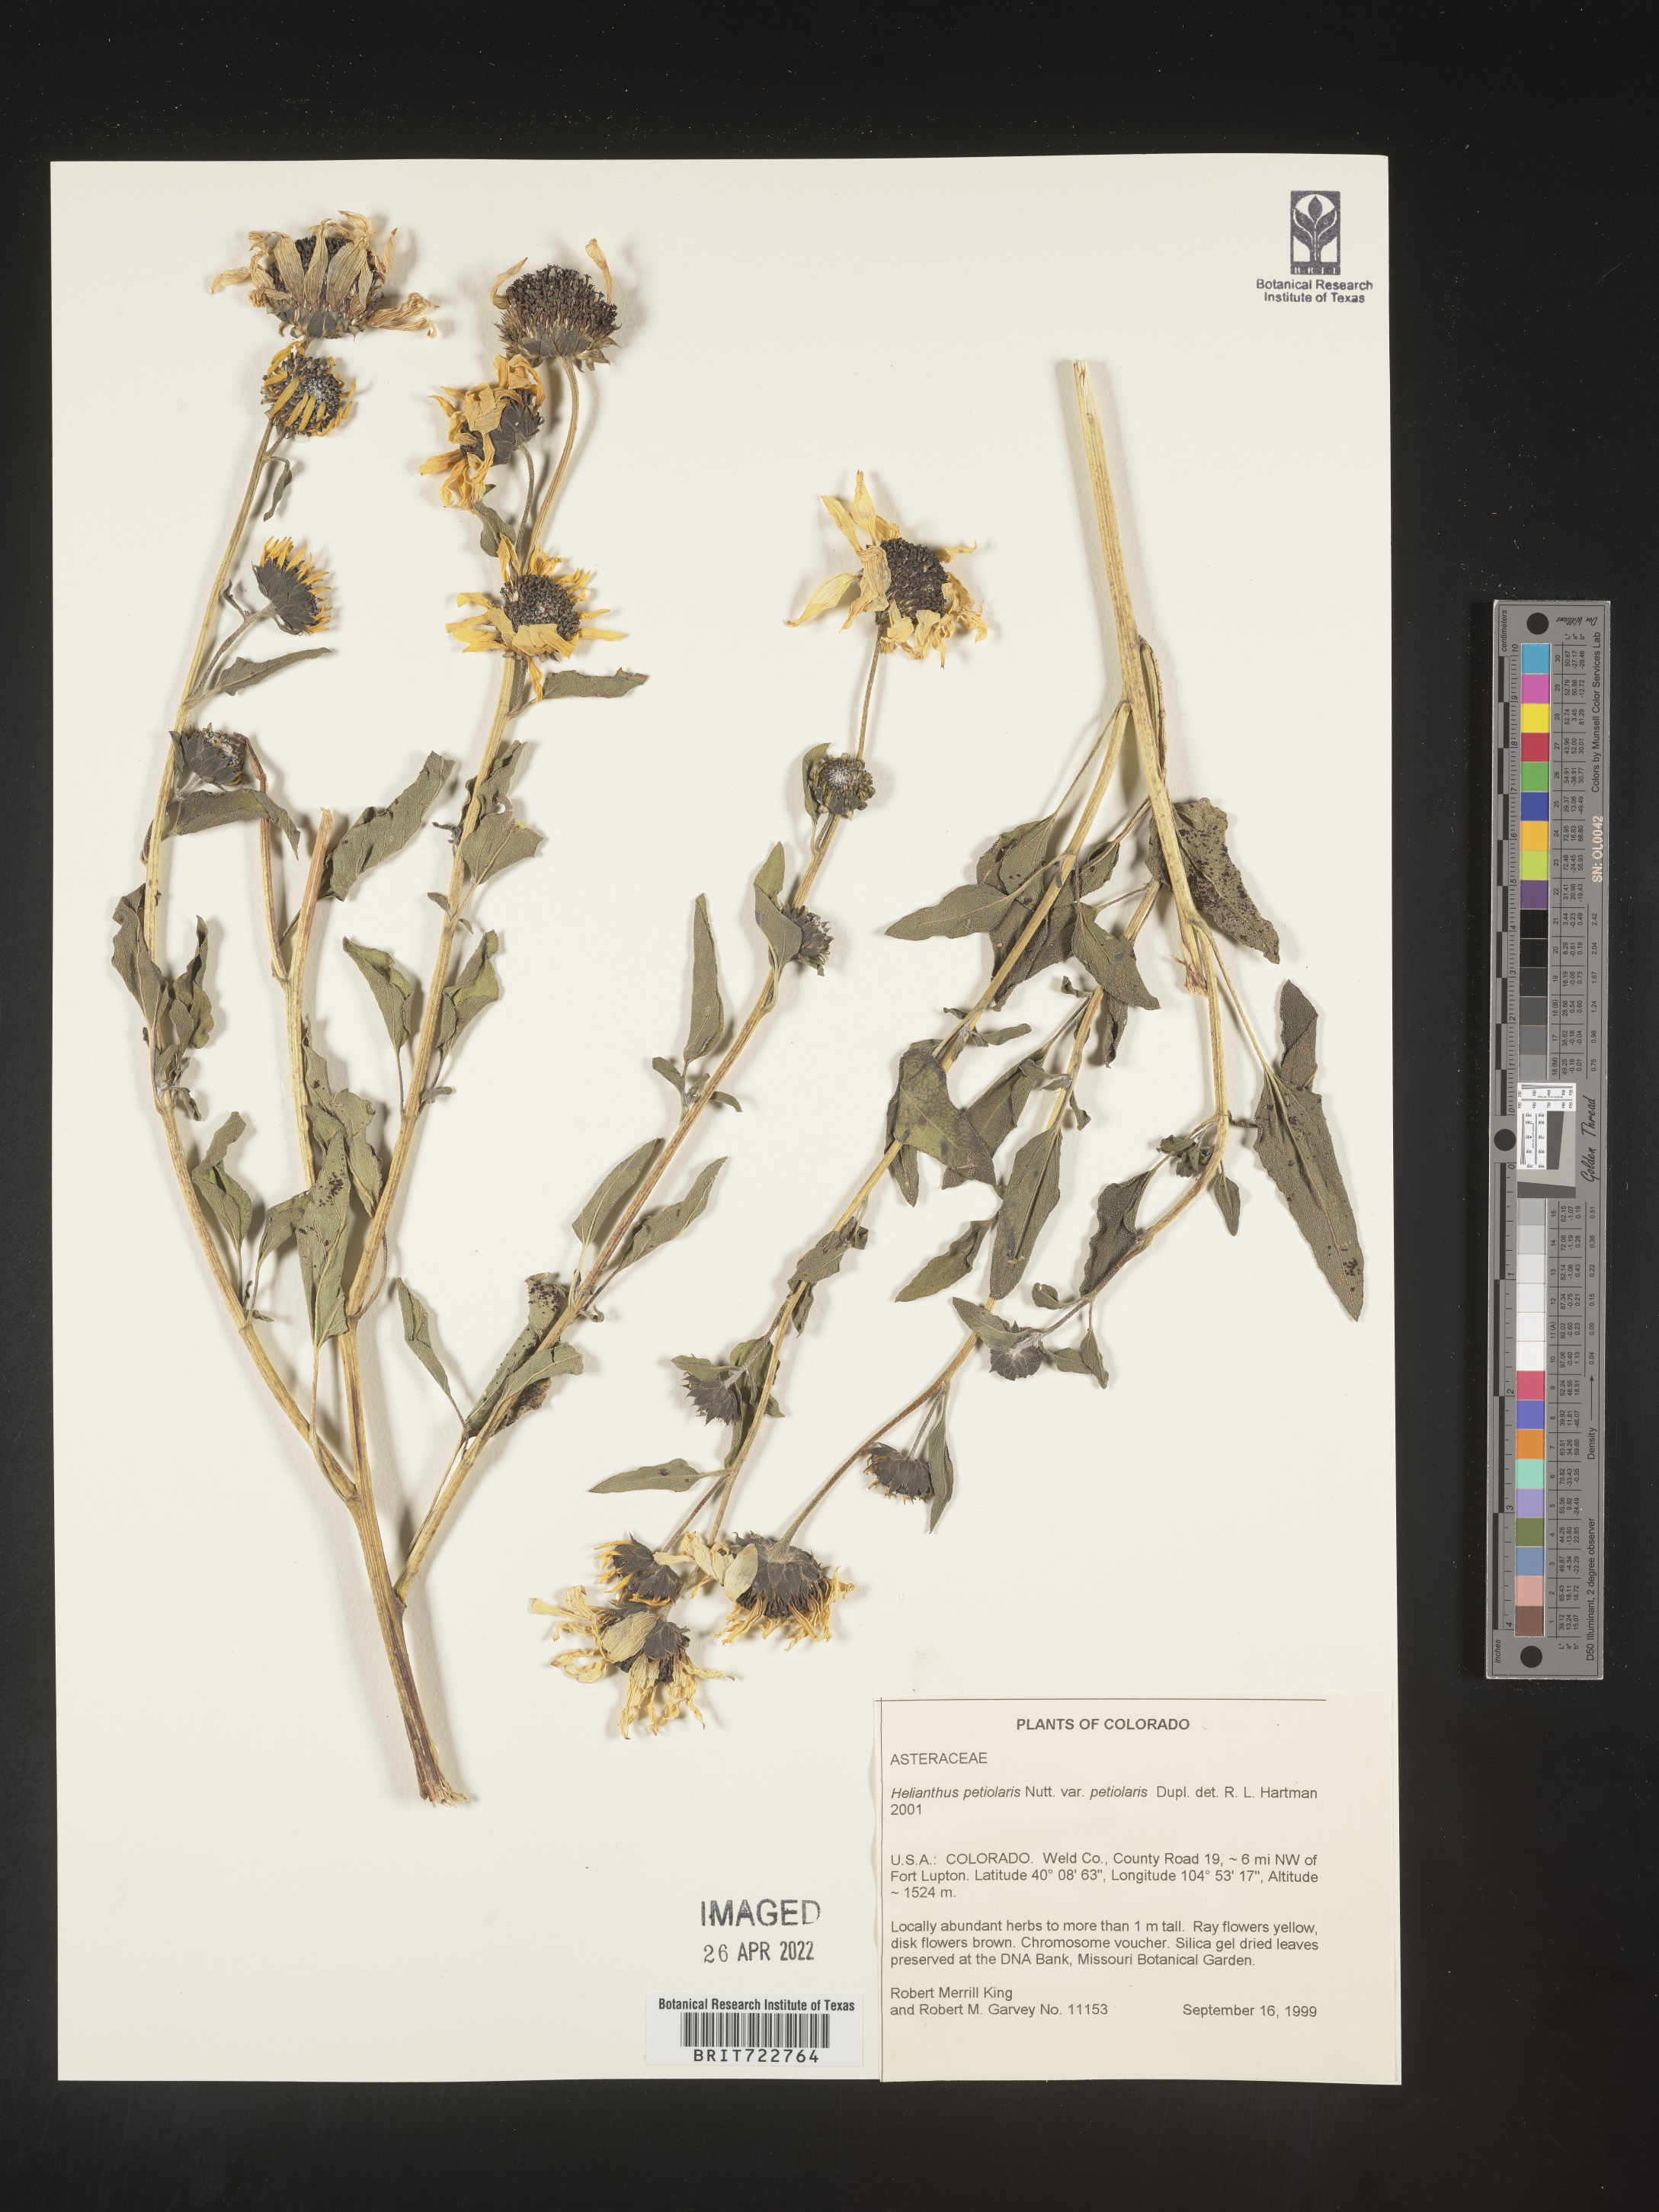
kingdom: Plantae
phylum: Tracheophyta
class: Magnoliopsida
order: Asterales
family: Asteraceae
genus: Helianthus
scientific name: Helianthus petiolaris
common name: Lesser sunflower
